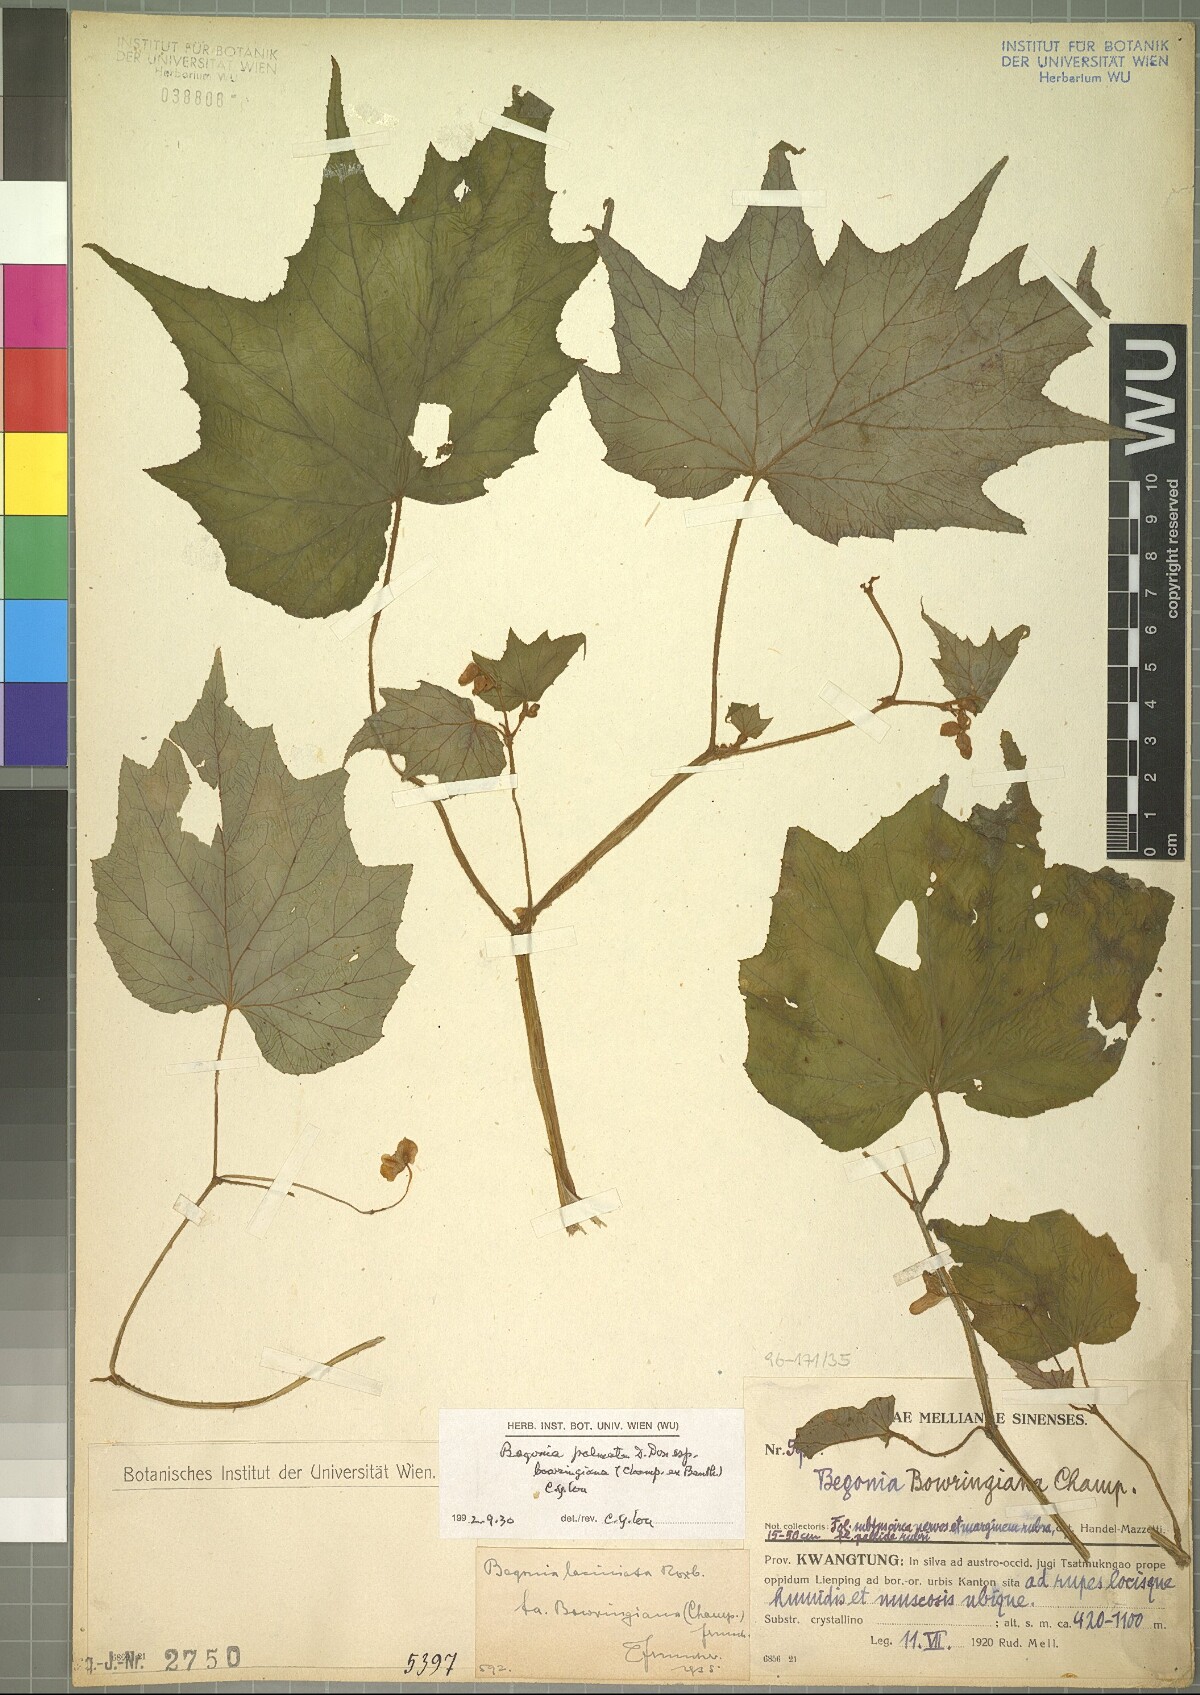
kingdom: Plantae
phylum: Tracheophyta
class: Magnoliopsida
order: Cucurbitales
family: Begoniaceae
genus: Begonia
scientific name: Begonia palmata
